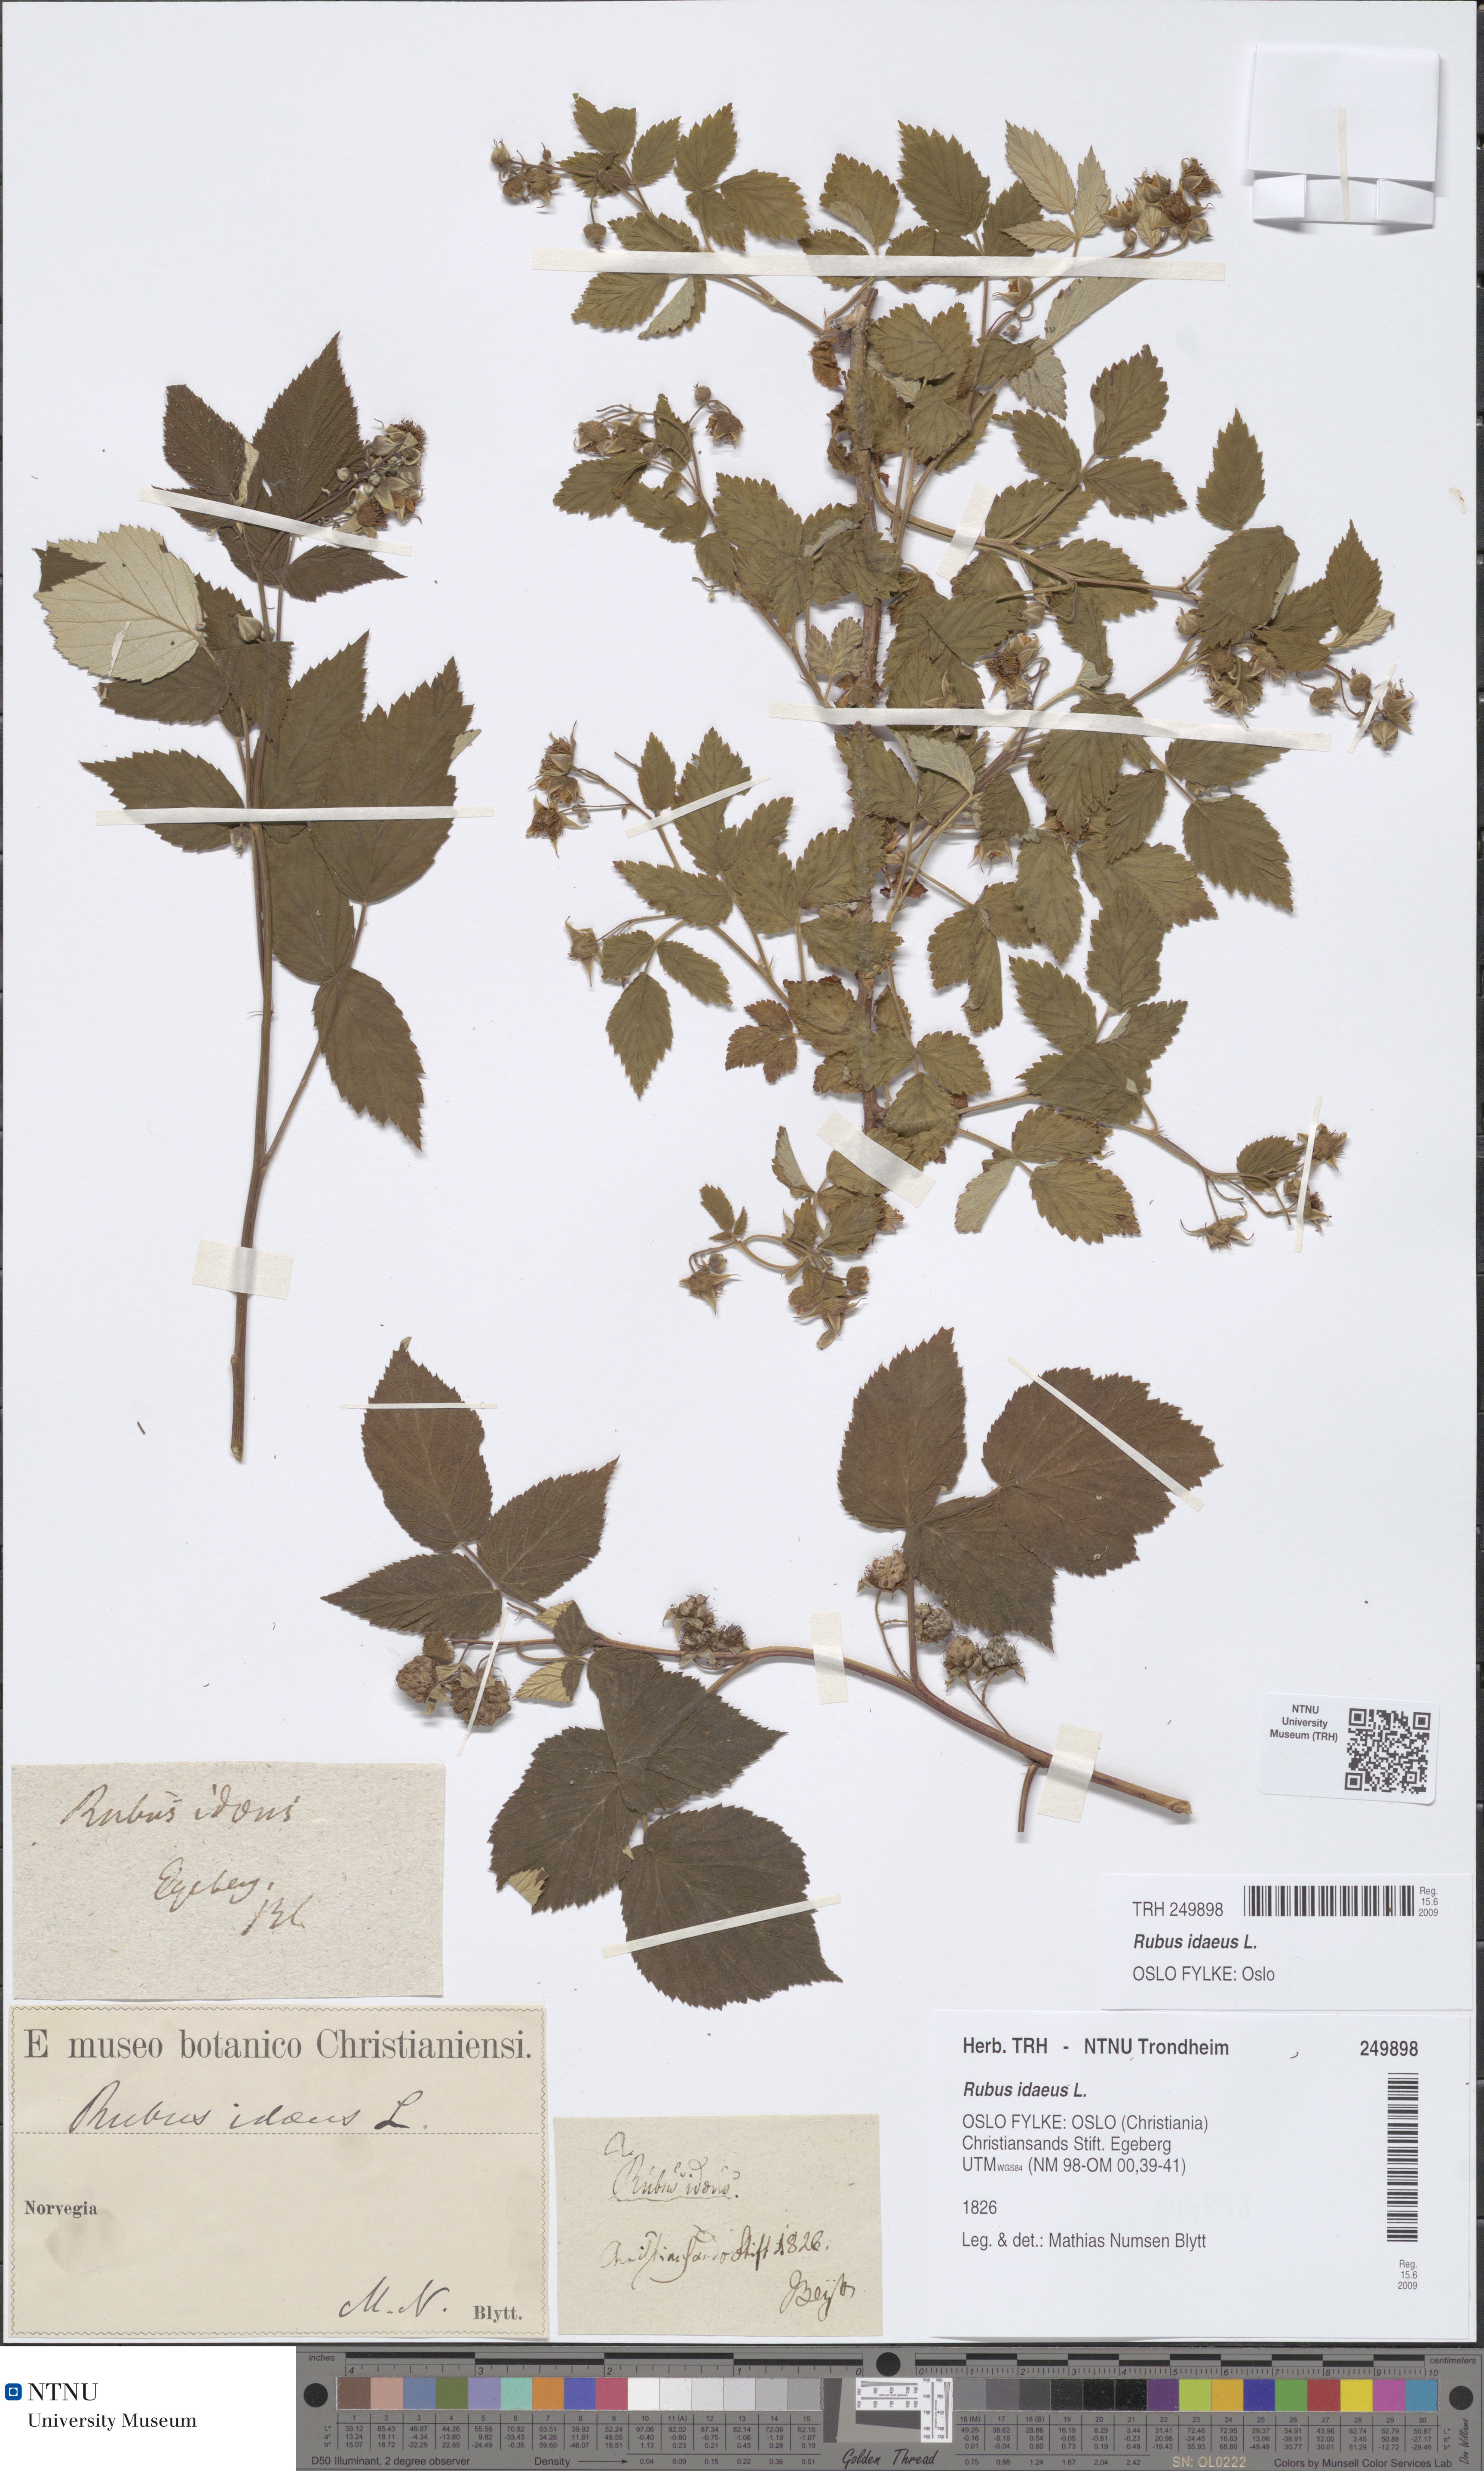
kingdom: Plantae
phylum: Tracheophyta
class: Magnoliopsida
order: Rosales
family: Rosaceae
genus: Rubus
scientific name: Rubus idaeus
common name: Raspberry
